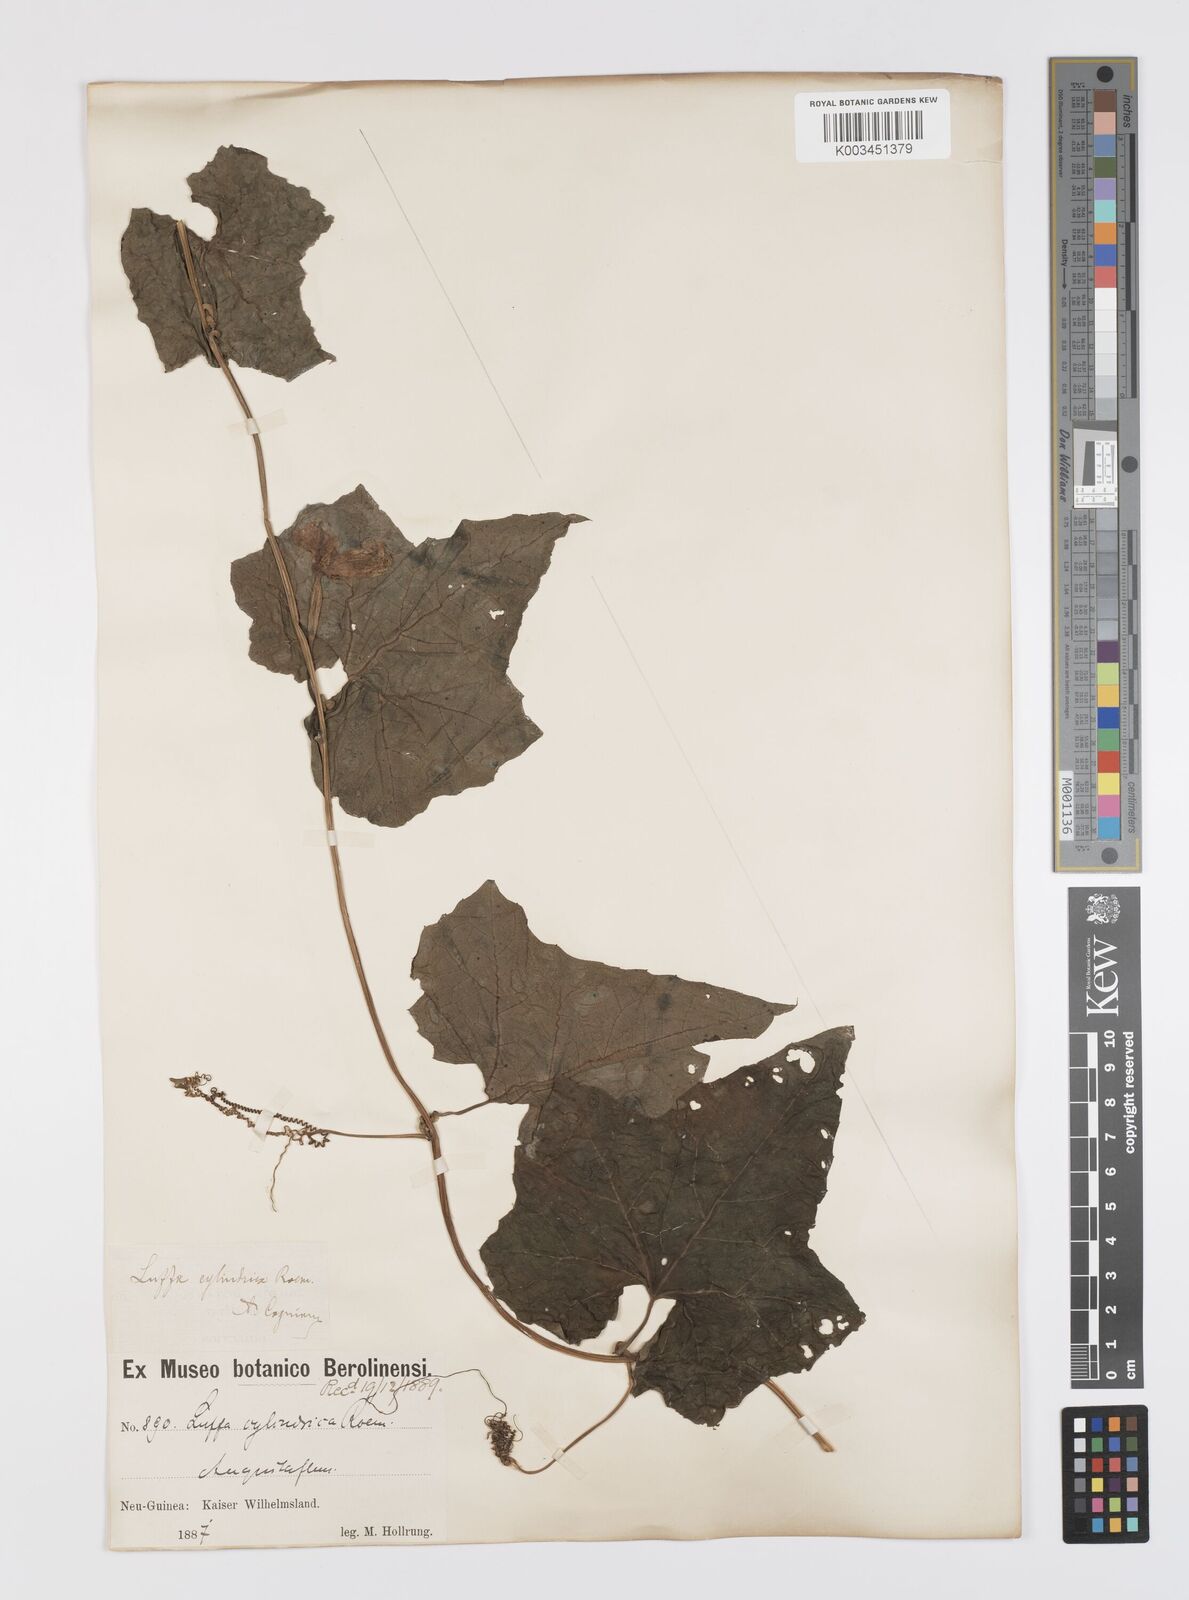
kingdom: Plantae
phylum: Tracheophyta
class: Magnoliopsida
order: Cucurbitales
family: Cucurbitaceae
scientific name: Cucurbitaceae
